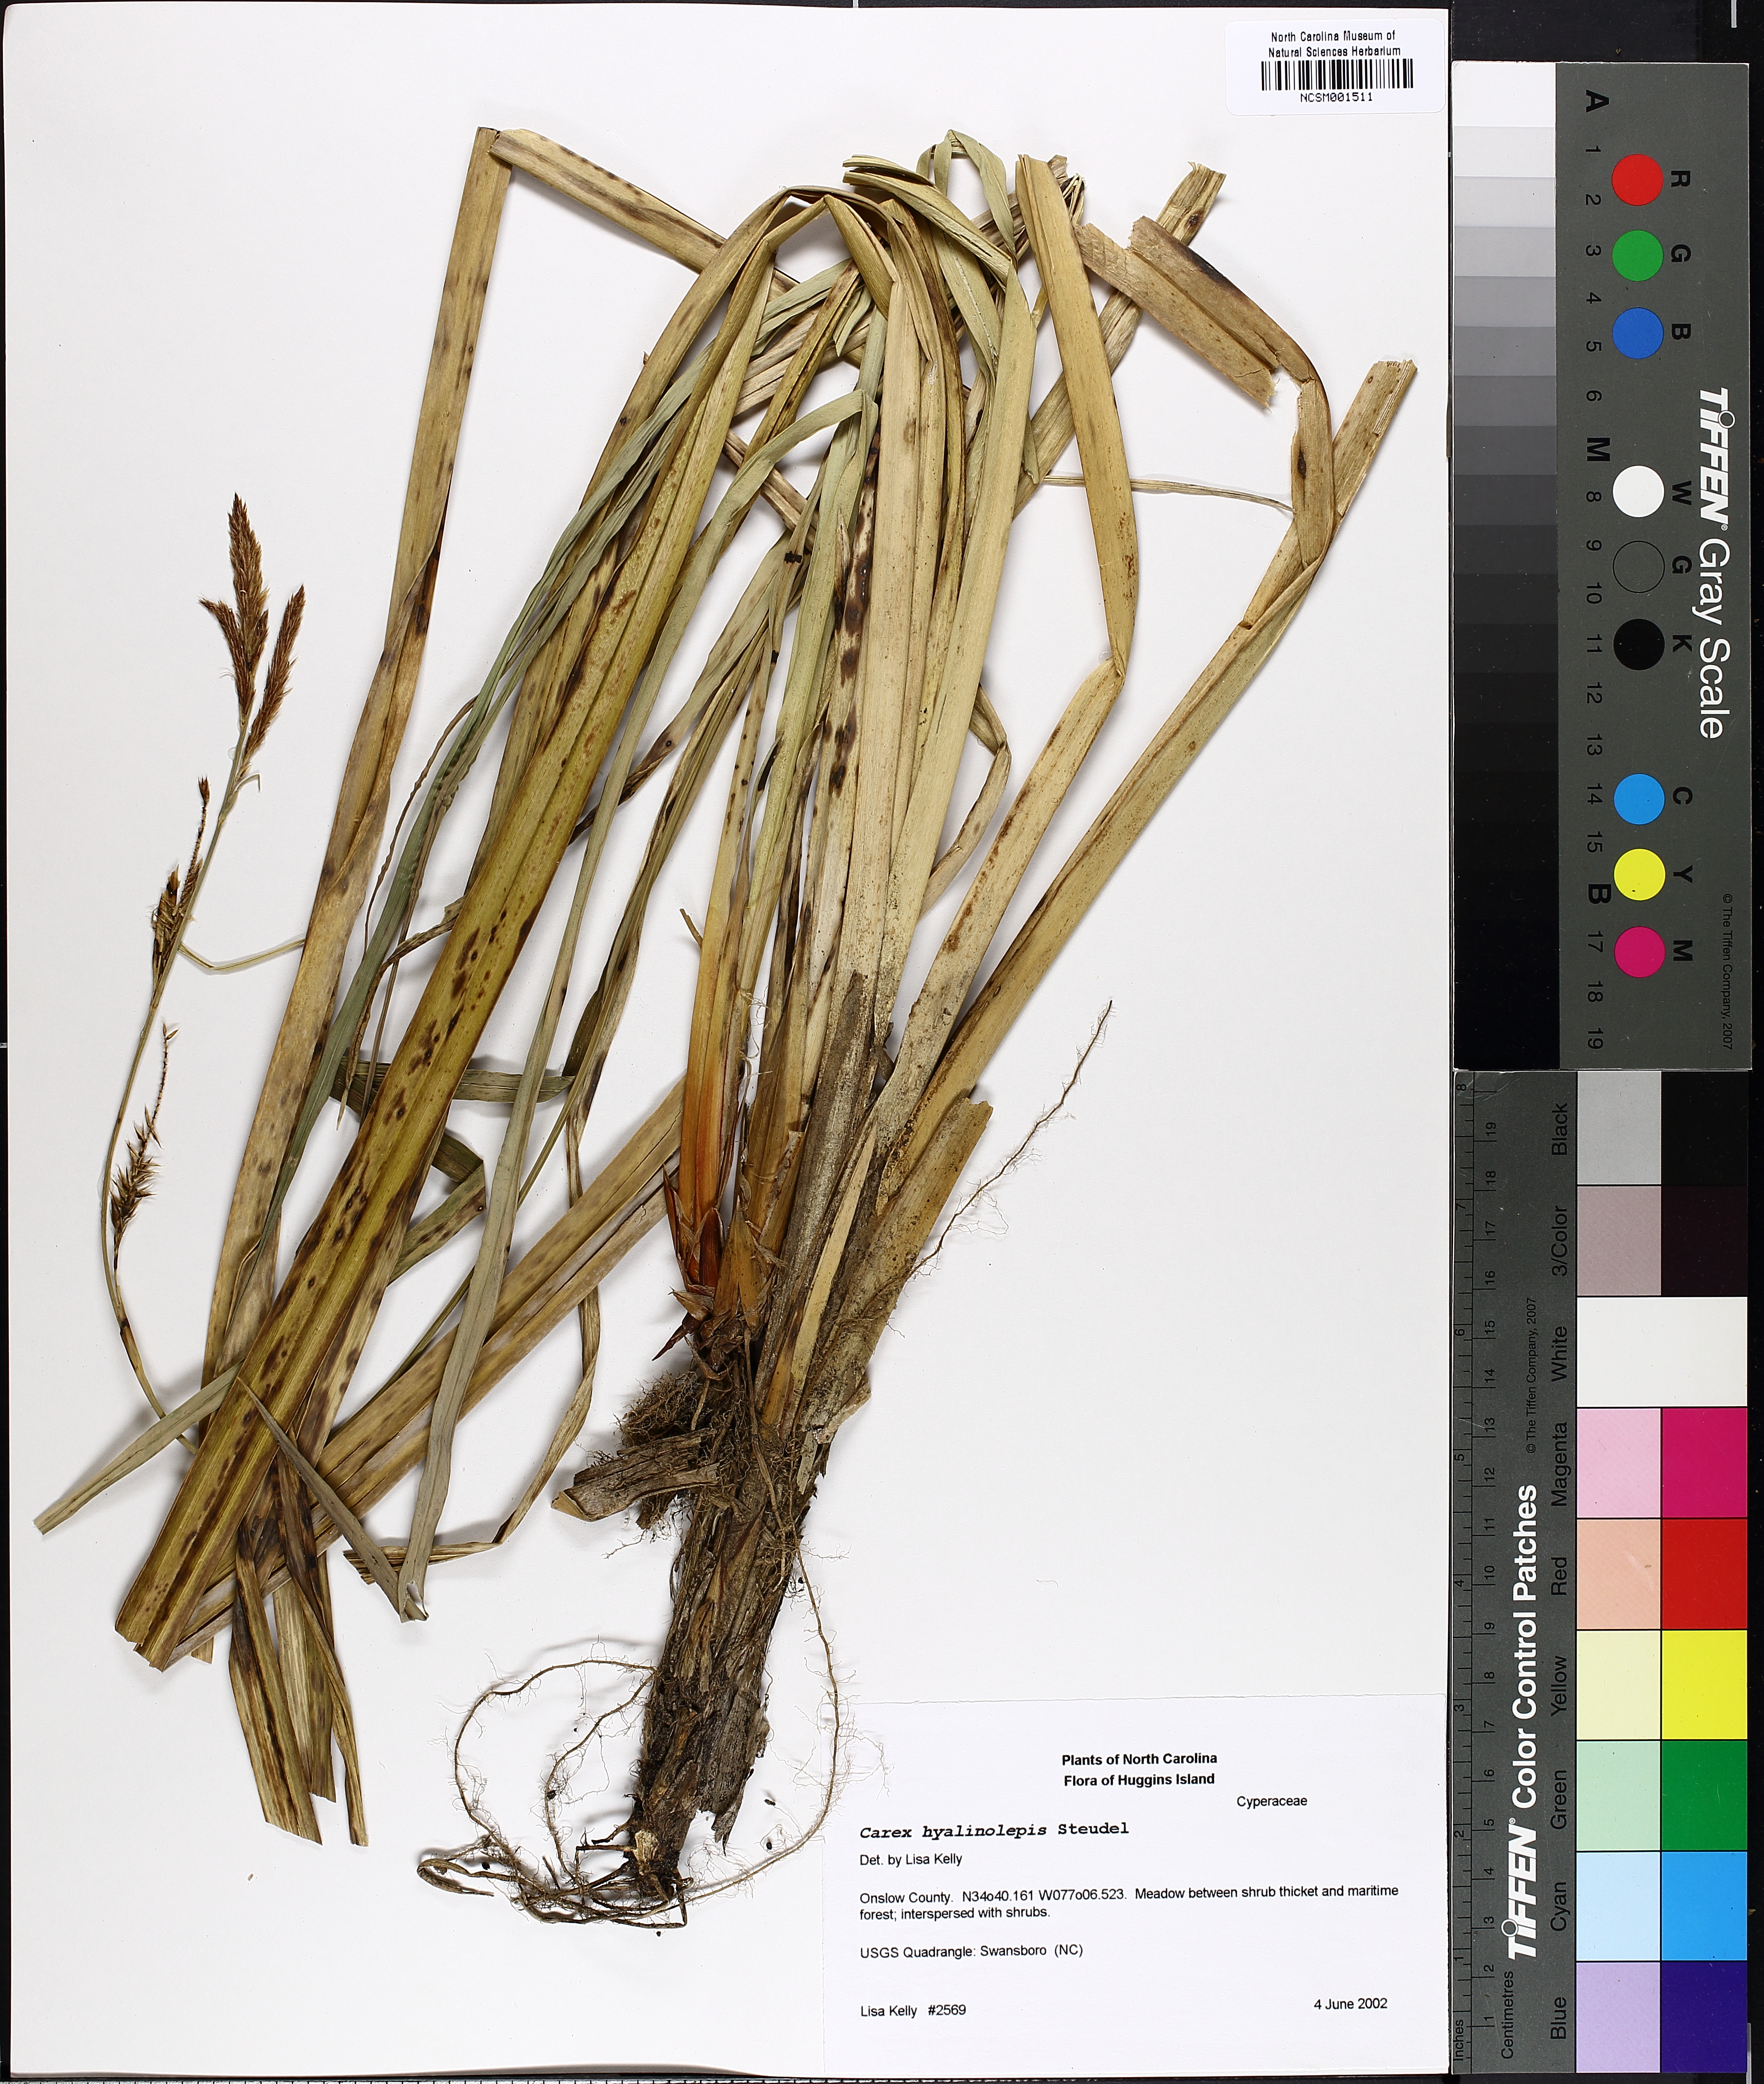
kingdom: Plantae
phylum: Tracheophyta
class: Liliopsida
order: Poales
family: Cyperaceae
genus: Carex
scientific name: Carex hyalinolepis
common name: Shoreline sedge
